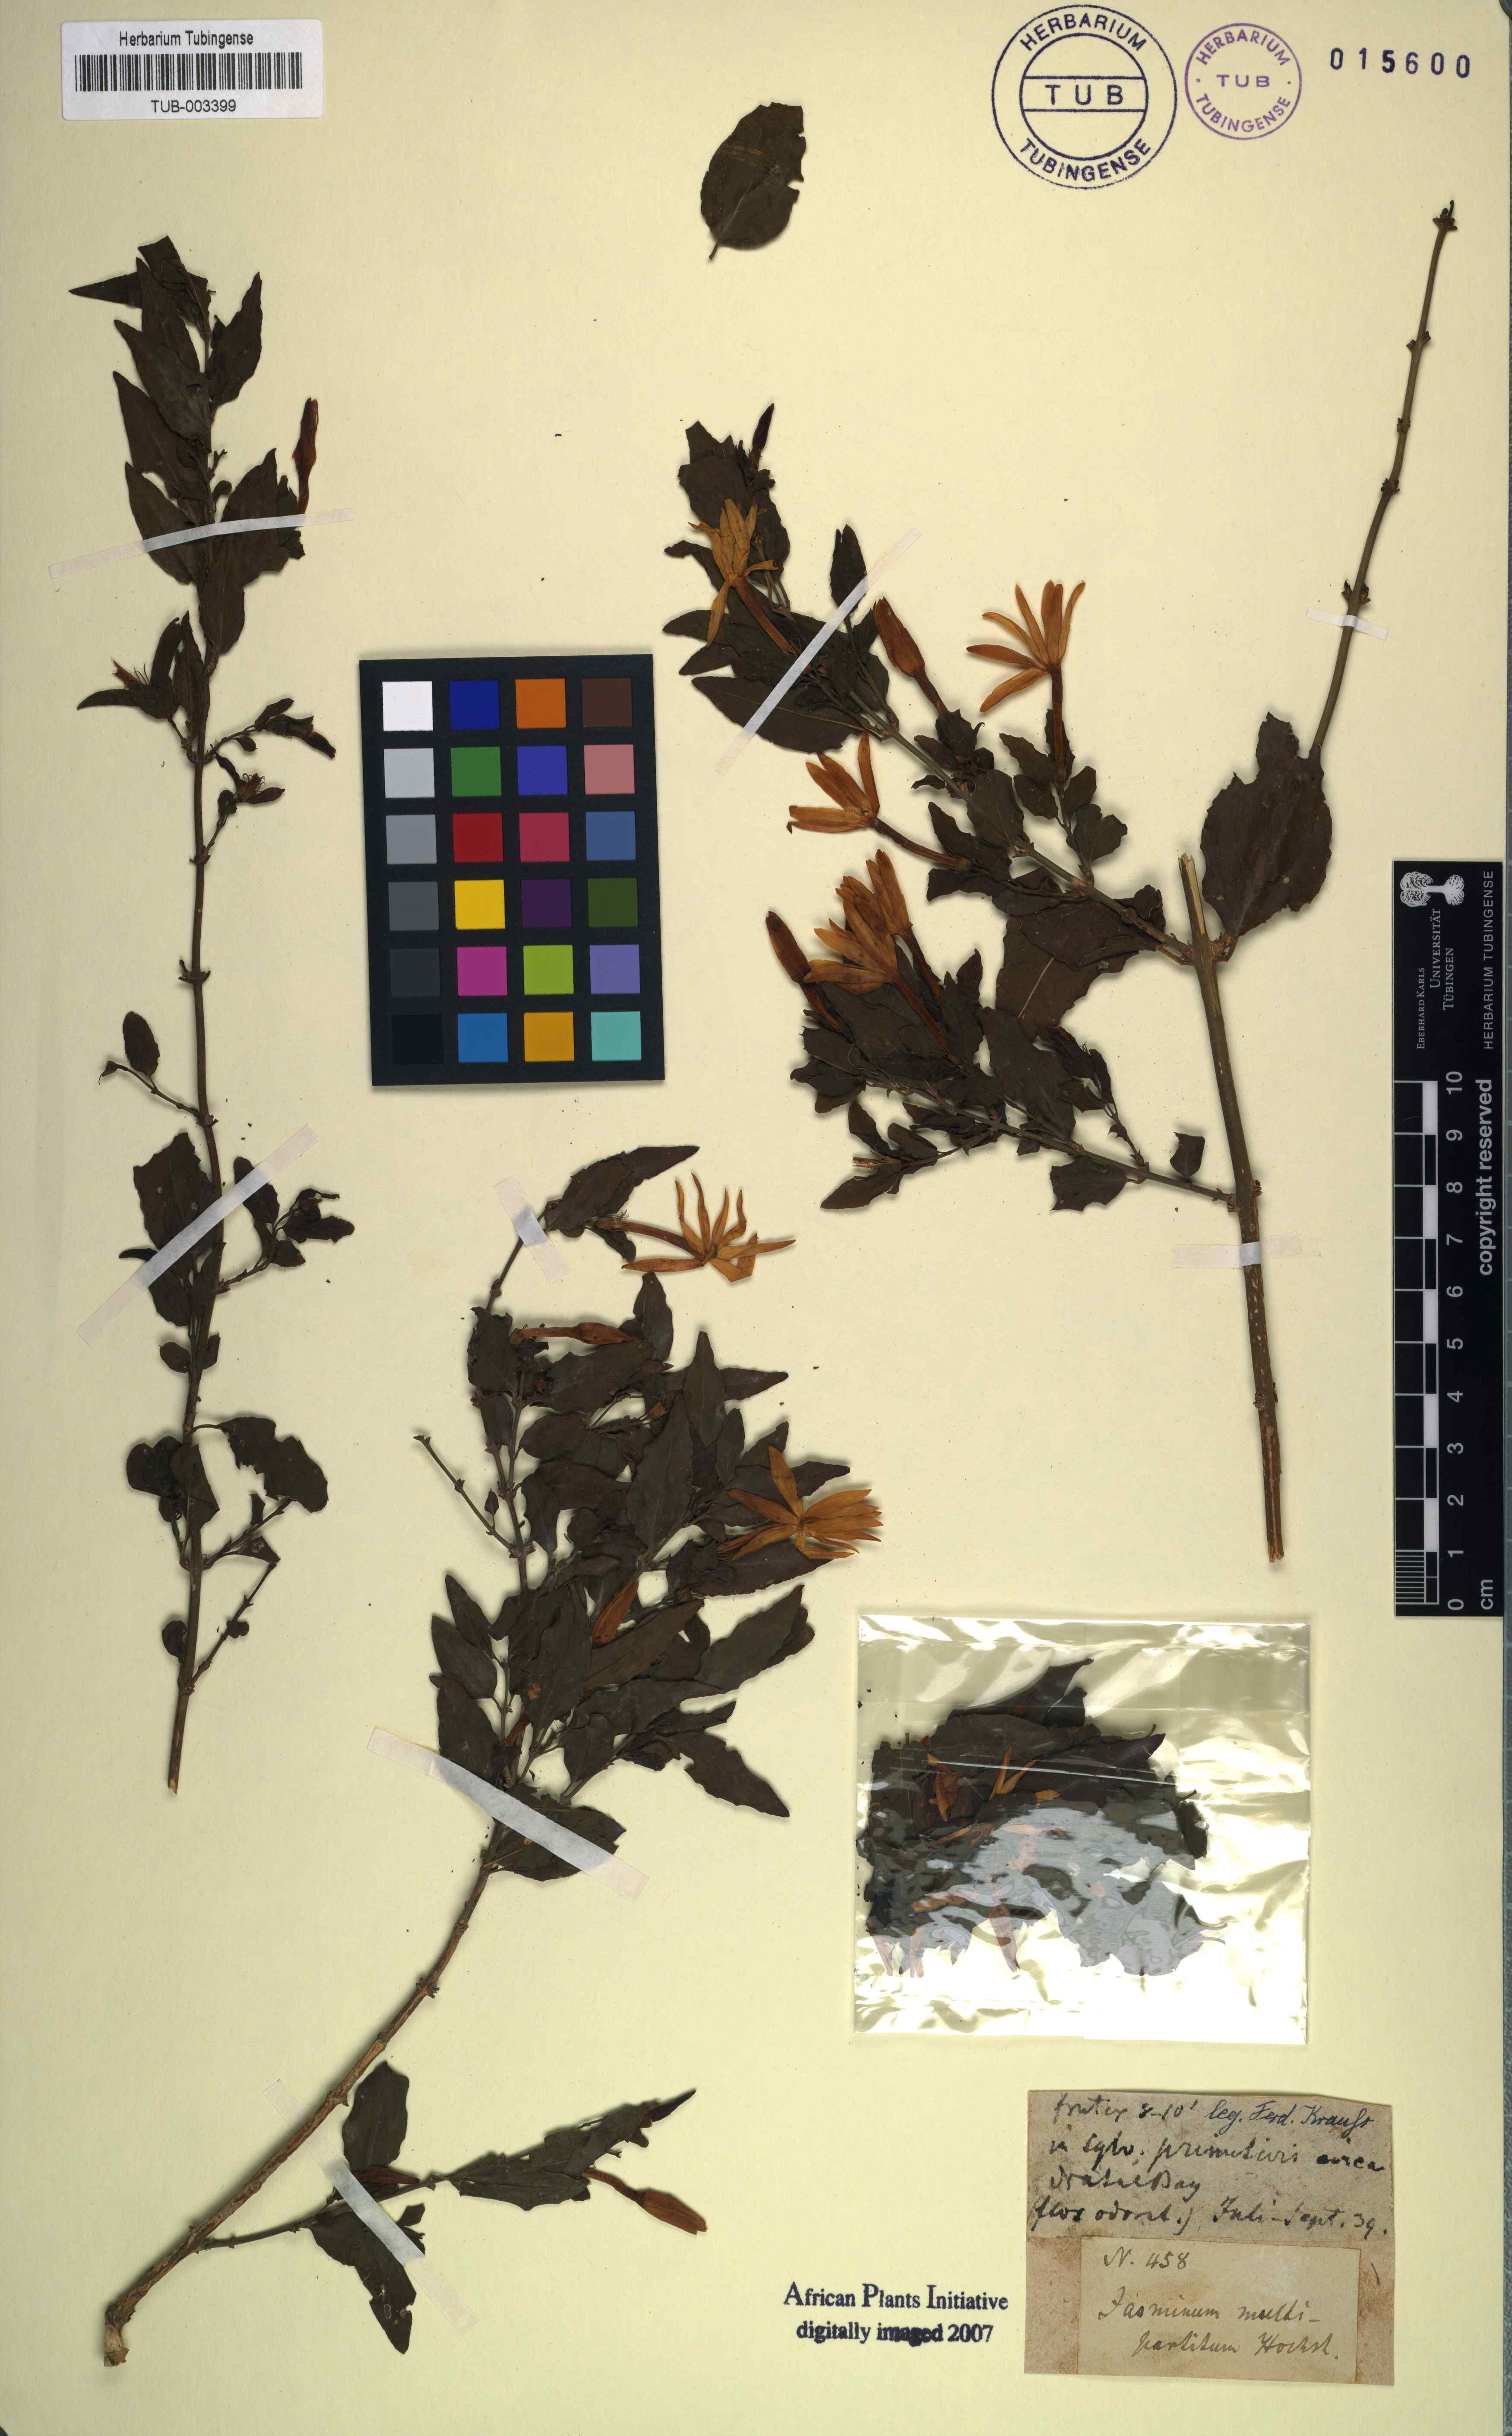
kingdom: Plantae
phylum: Tracheophyta
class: Magnoliopsida
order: Lamiales
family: Oleaceae
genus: Jasminum
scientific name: Jasminum multipartitum
